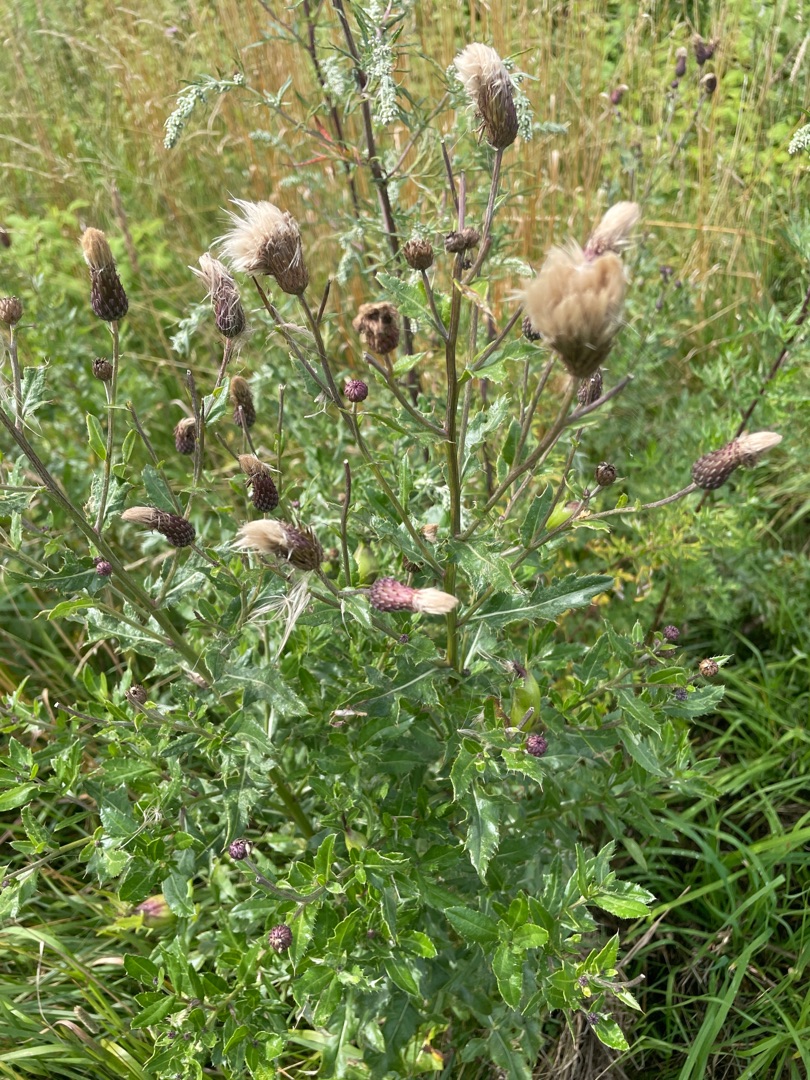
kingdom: Plantae
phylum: Tracheophyta
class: Magnoliopsida
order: Asterales
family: Asteraceae
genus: Cirsium
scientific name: Cirsium arvense
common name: Ager-tidsel
